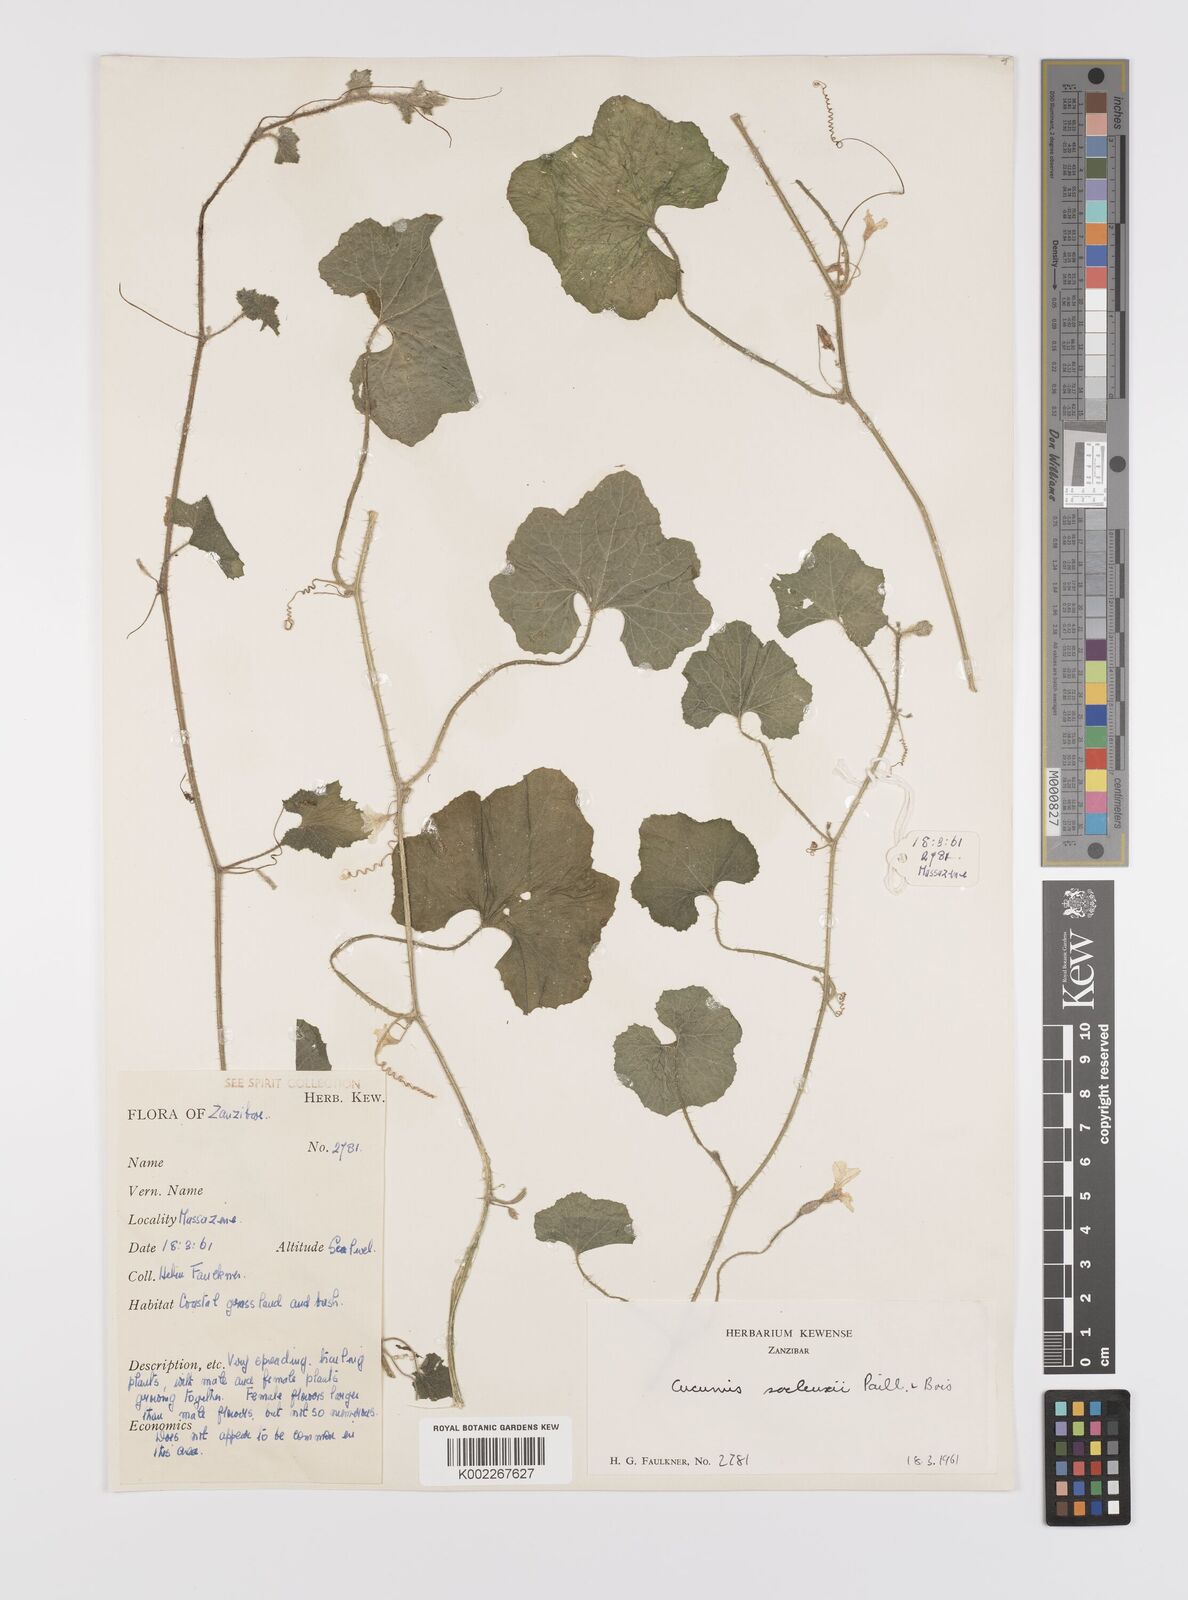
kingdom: Plantae
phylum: Tracheophyta
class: Magnoliopsida
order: Cucurbitales
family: Cucurbitaceae
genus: Cucumis
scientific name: Cucumis sacleuxii
